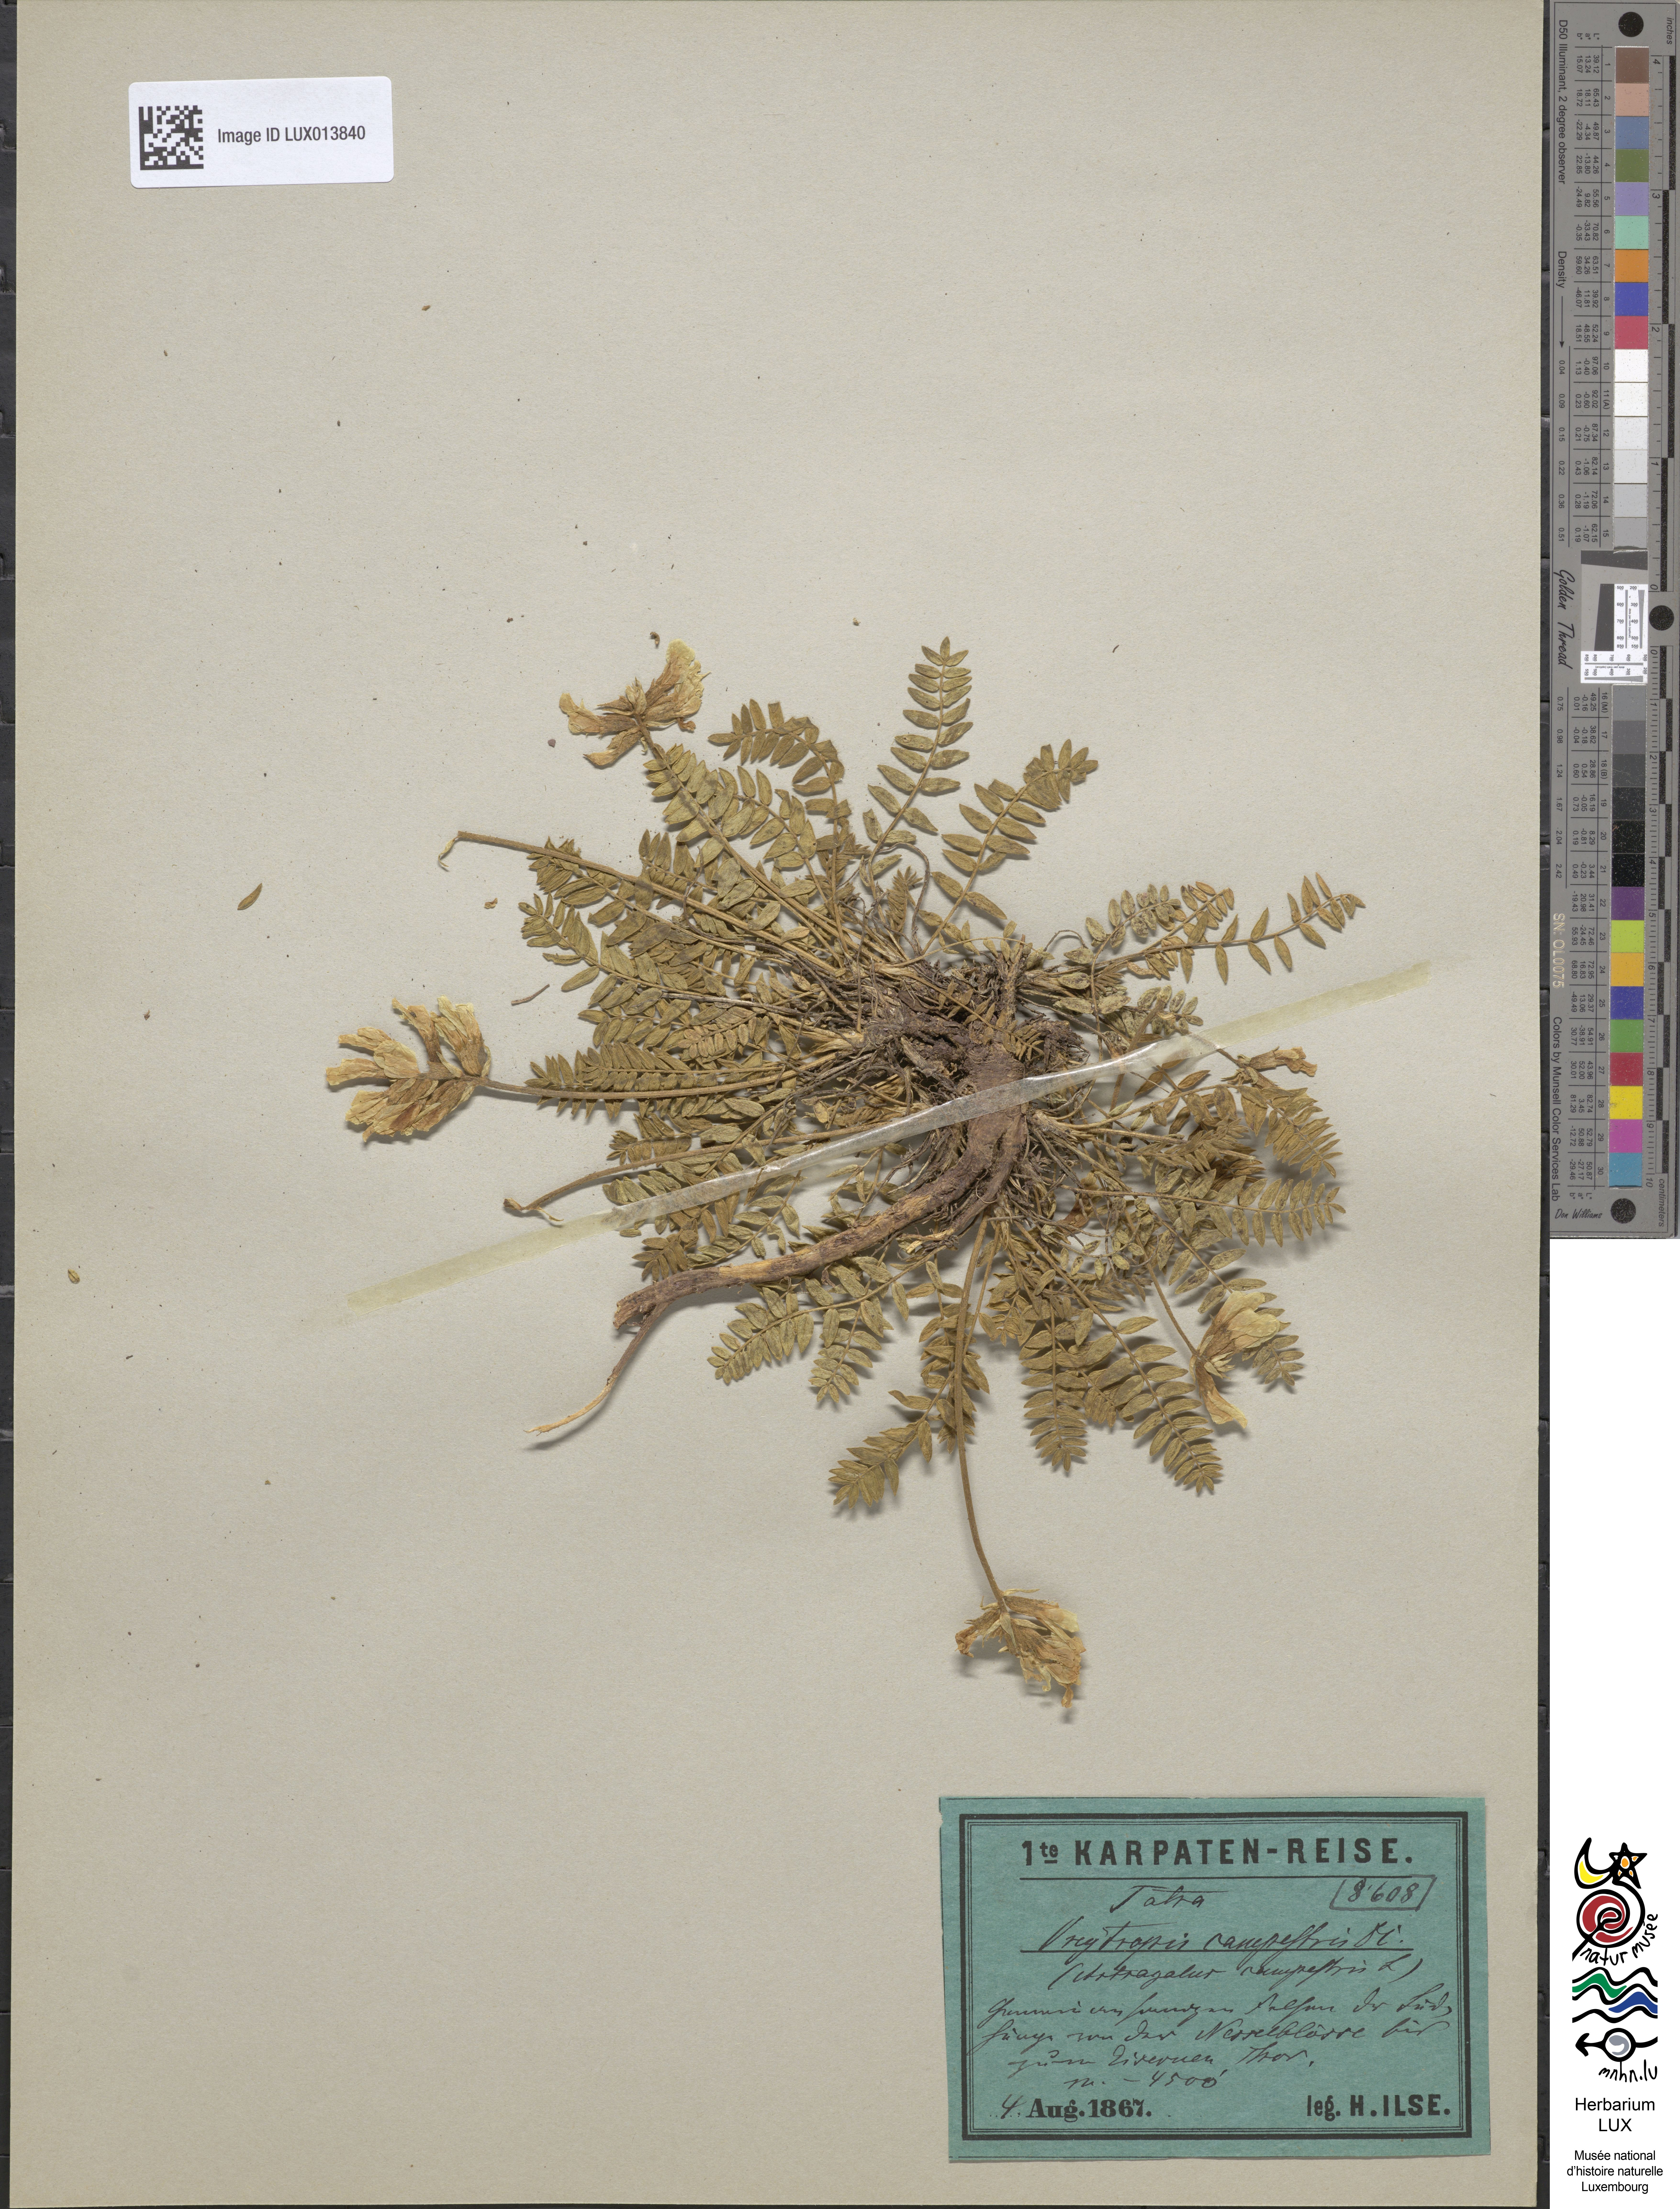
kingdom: Plantae
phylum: Tracheophyta
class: Magnoliopsida
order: Fabales
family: Fabaceae
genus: Oxytropis
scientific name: Oxytropis campestris
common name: Field locoweed
